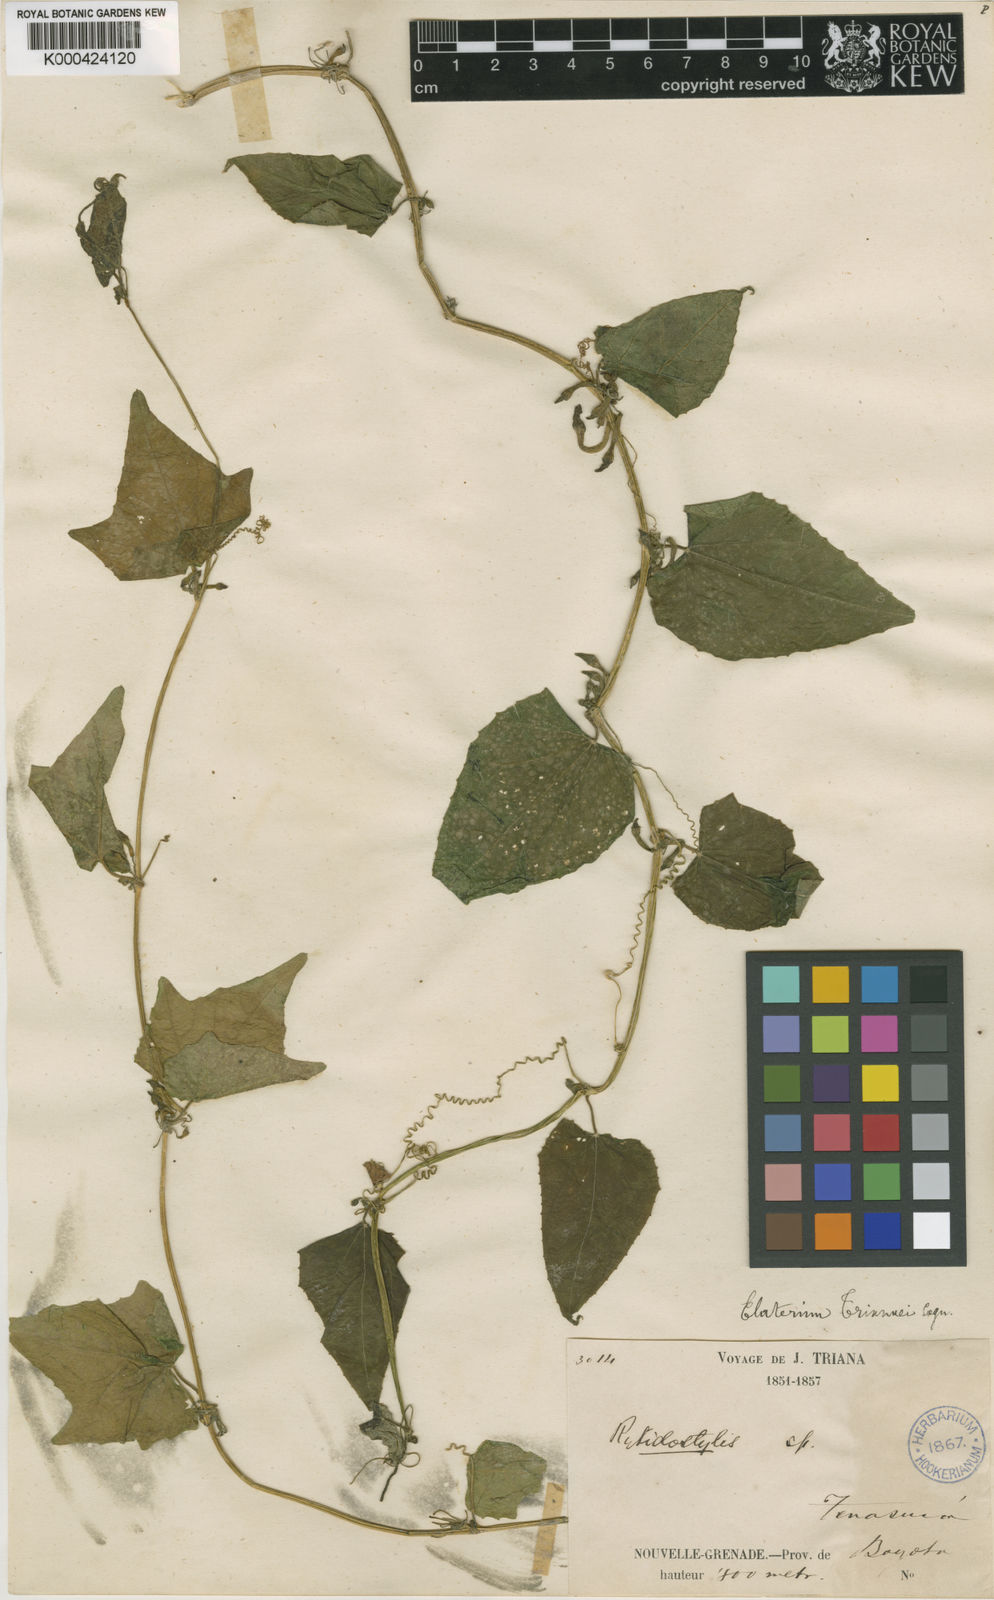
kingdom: Plantae
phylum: Tracheophyta
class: Magnoliopsida
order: Cucurbitales
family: Cucurbitaceae
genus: Cyclanthera
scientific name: Cyclanthera peruana
